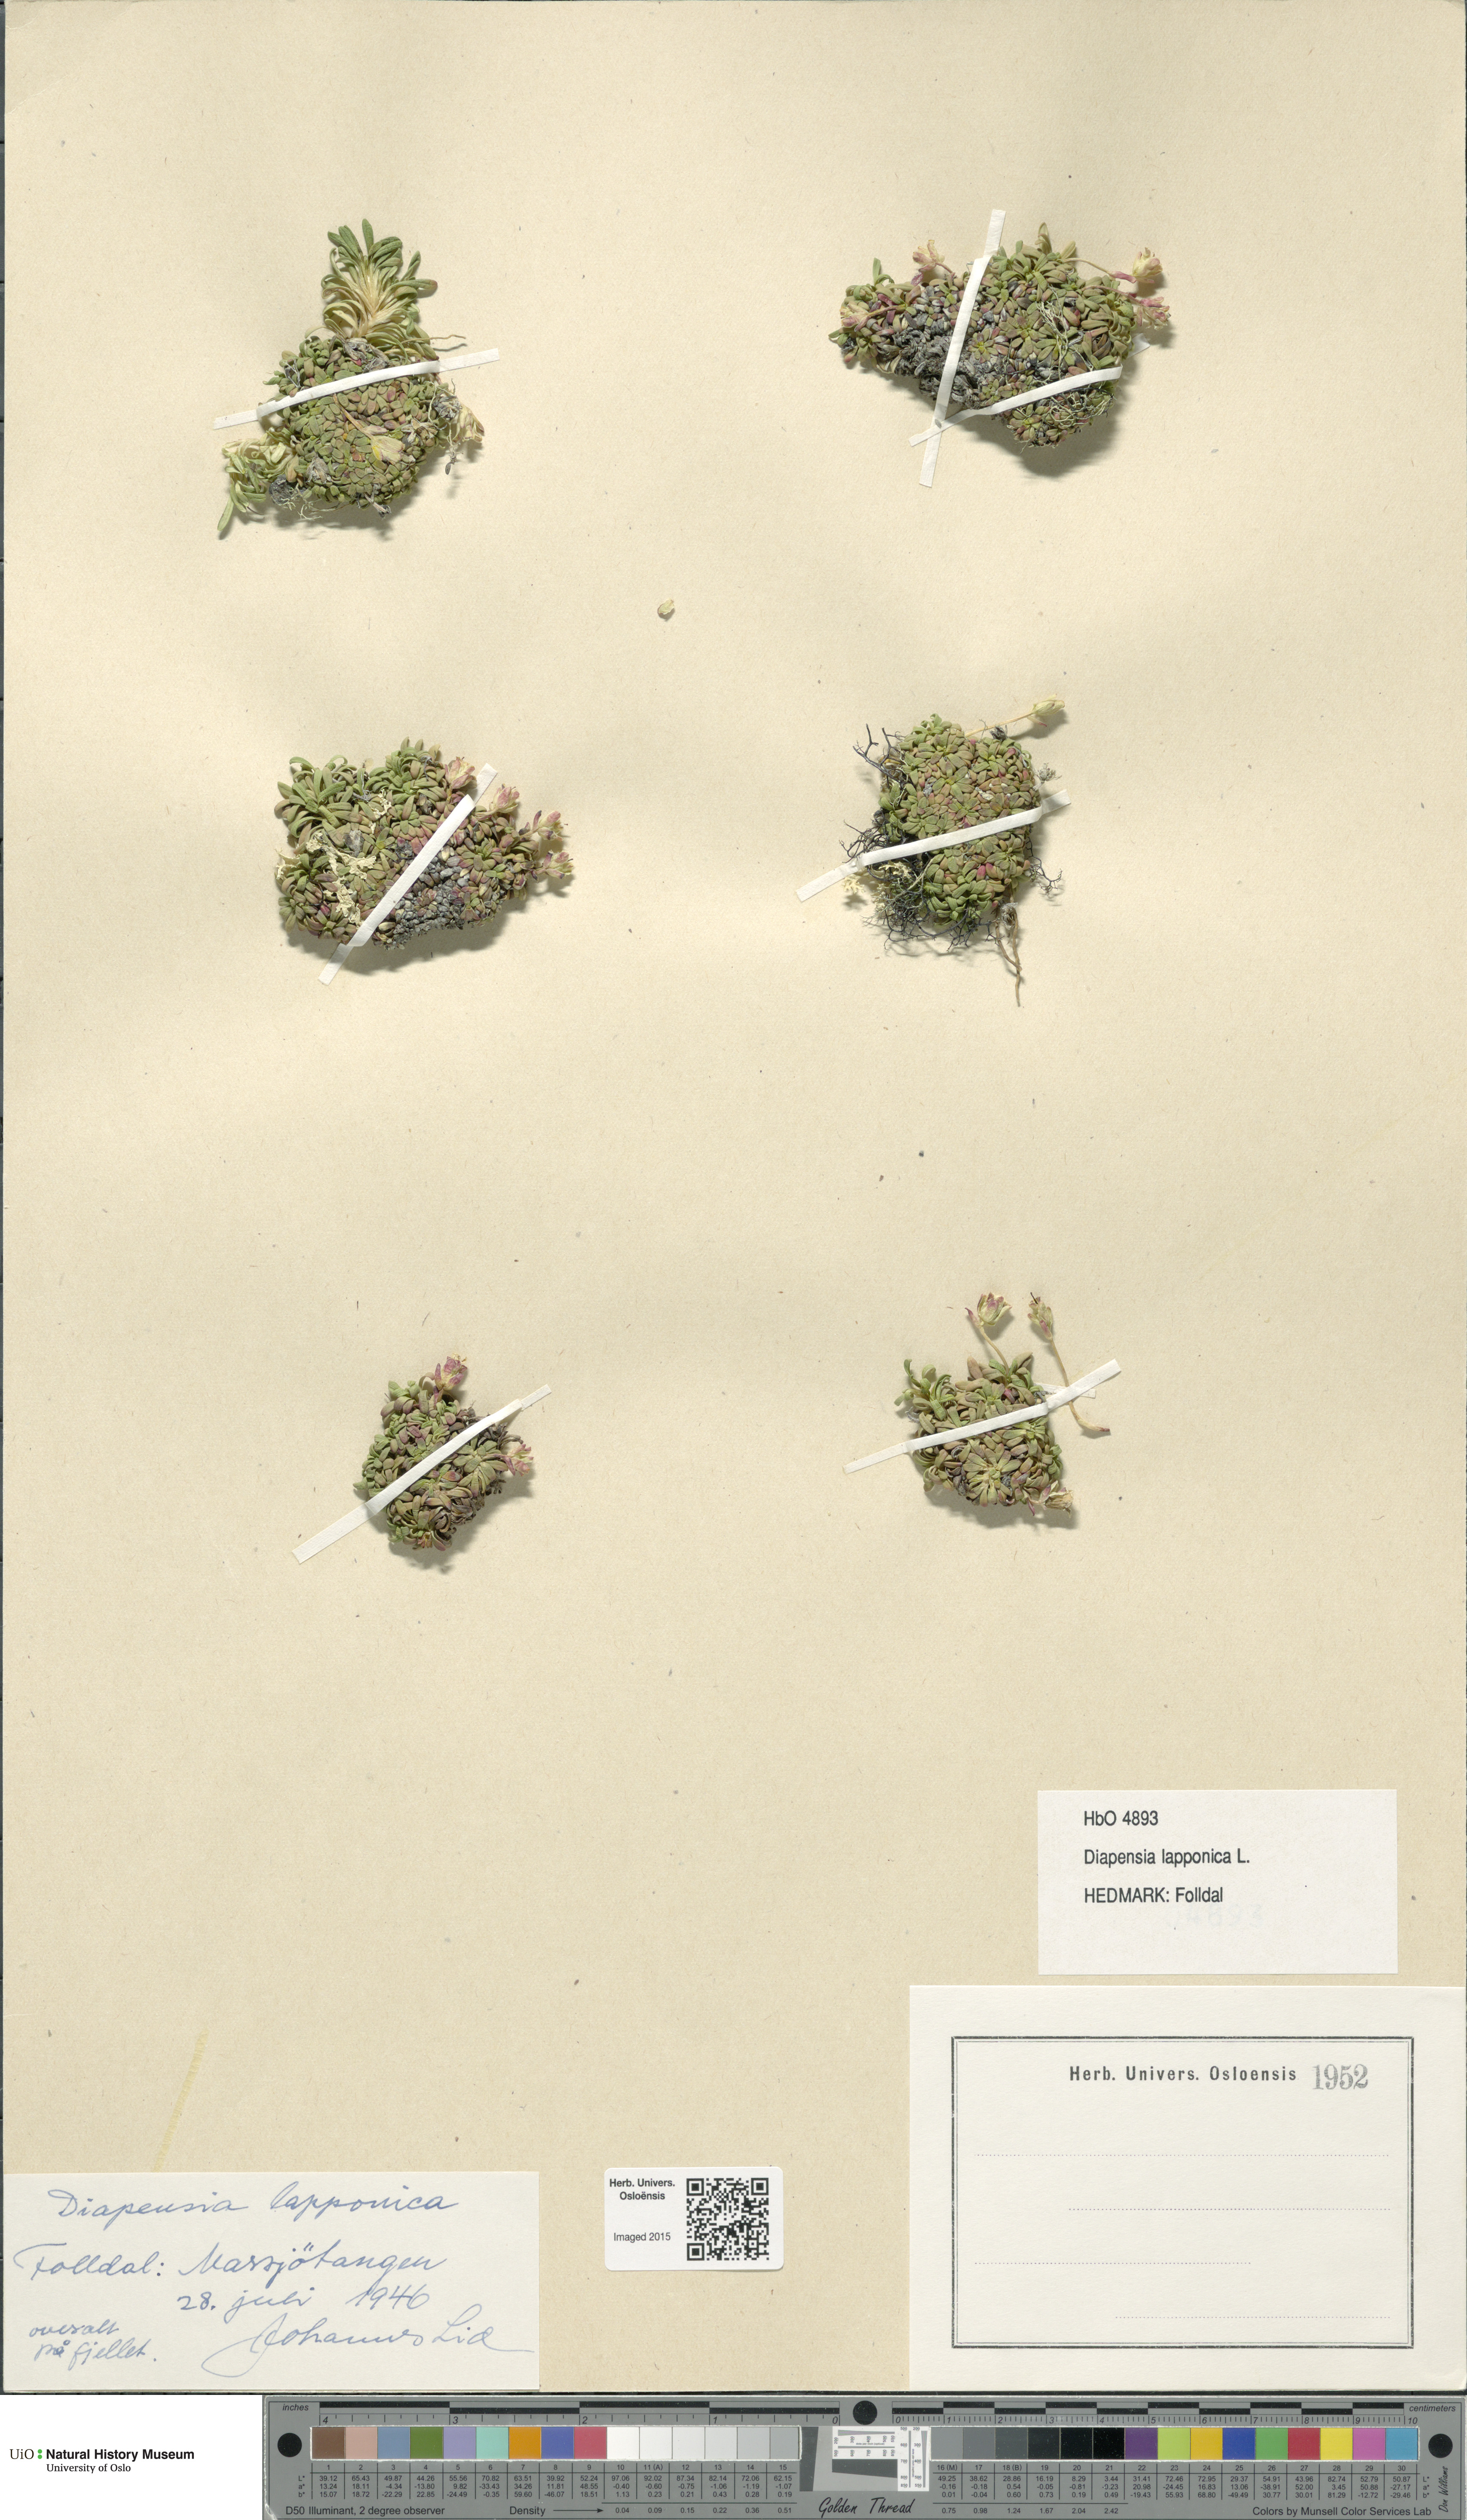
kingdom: Plantae
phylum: Tracheophyta
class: Magnoliopsida
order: Ericales
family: Diapensiaceae
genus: Diapensia
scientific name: Diapensia lapponica
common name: Diapensia
